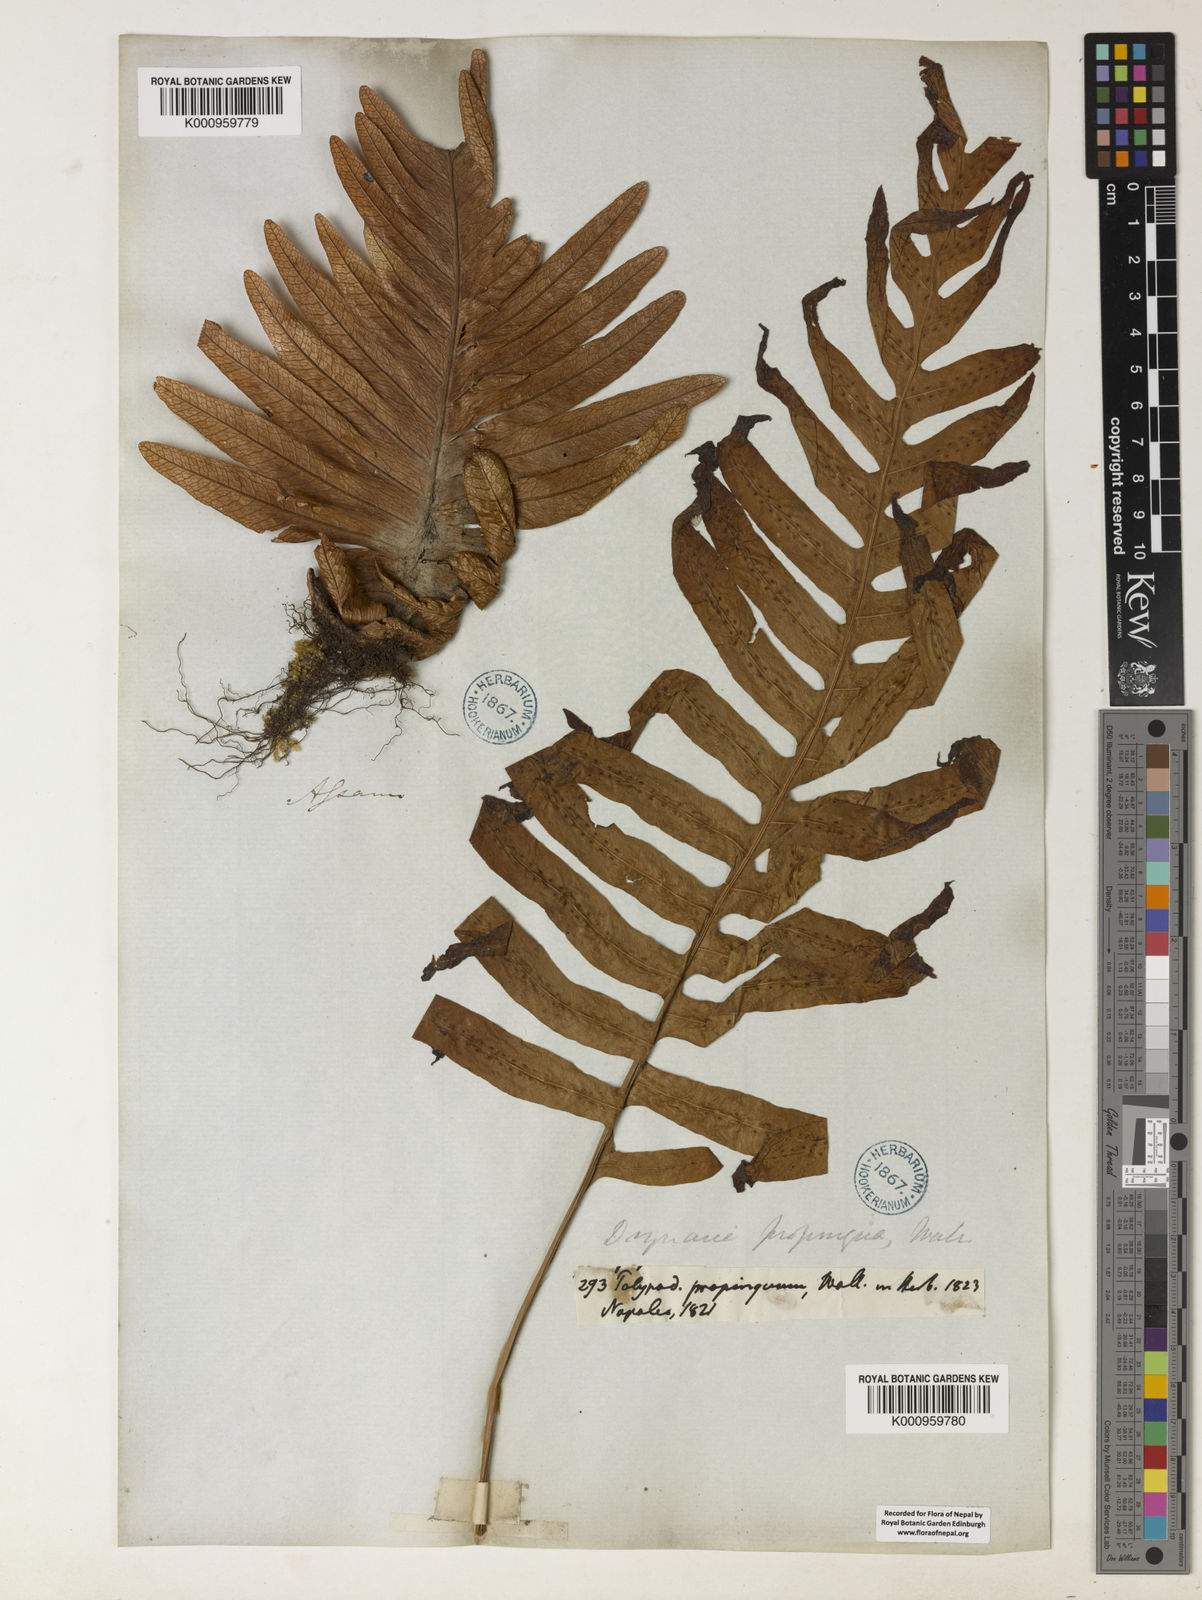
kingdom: Plantae
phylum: Tracheophyta
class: Polypodiopsida
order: Polypodiales
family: Polypodiaceae
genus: Drynaria
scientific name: Drynaria
